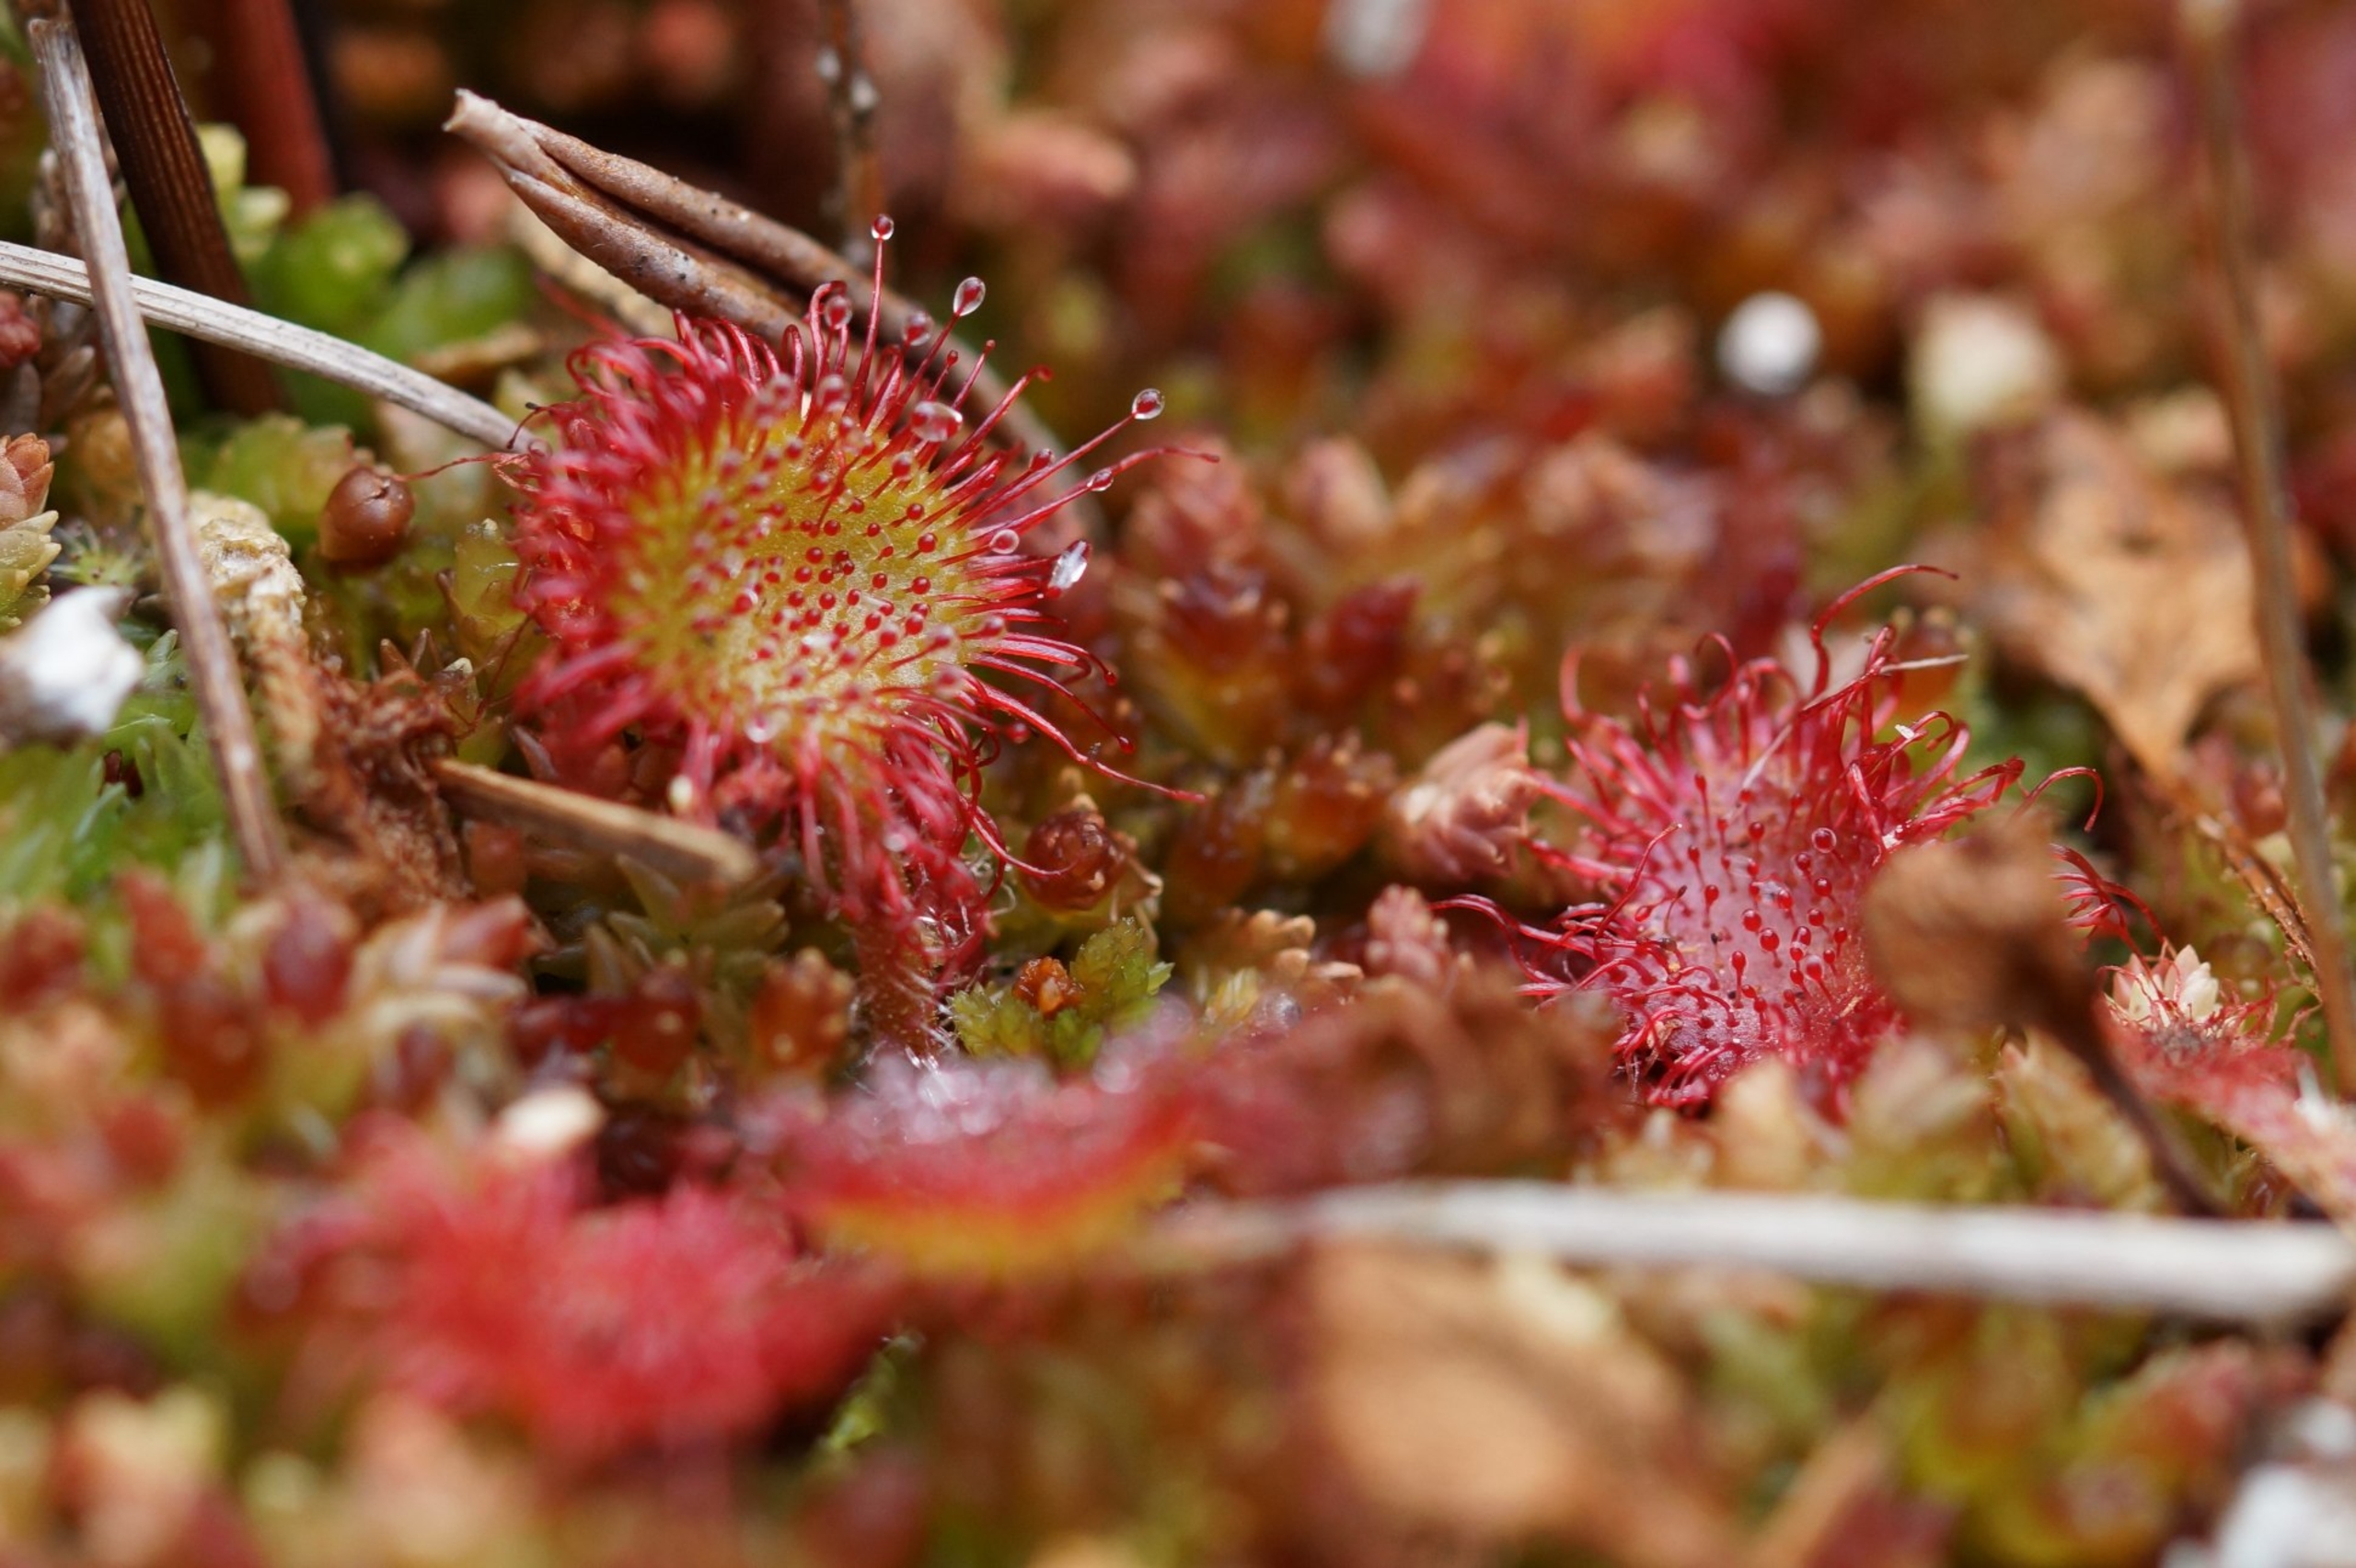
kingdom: Plantae
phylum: Tracheophyta
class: Magnoliopsida
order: Caryophyllales
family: Droseraceae
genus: Drosera
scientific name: Drosera rotundifolia
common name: Rundbladet soldug
